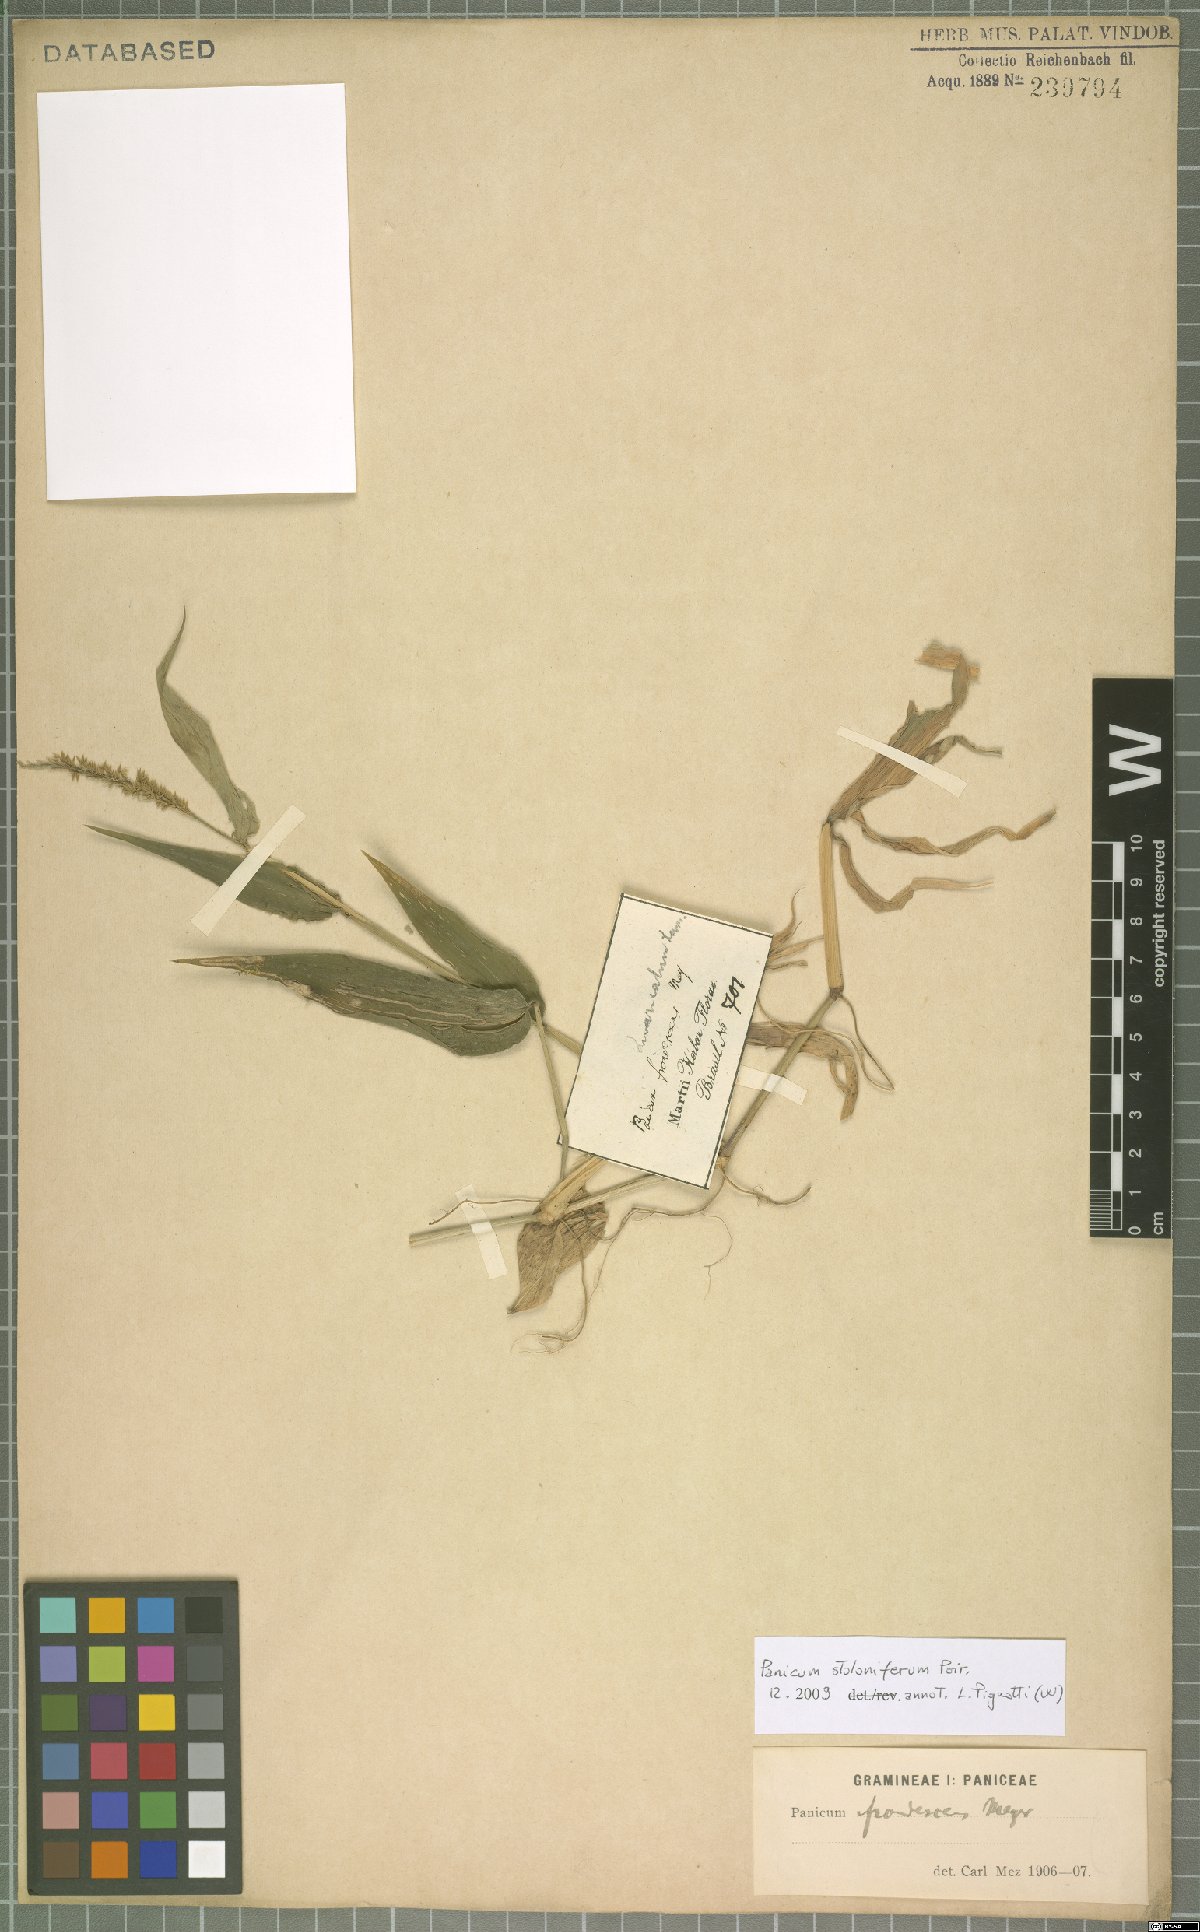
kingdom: Plantae
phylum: Tracheophyta
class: Liliopsida
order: Poales
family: Poaceae
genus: Ocellochloa
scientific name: Ocellochloa stolonifera
